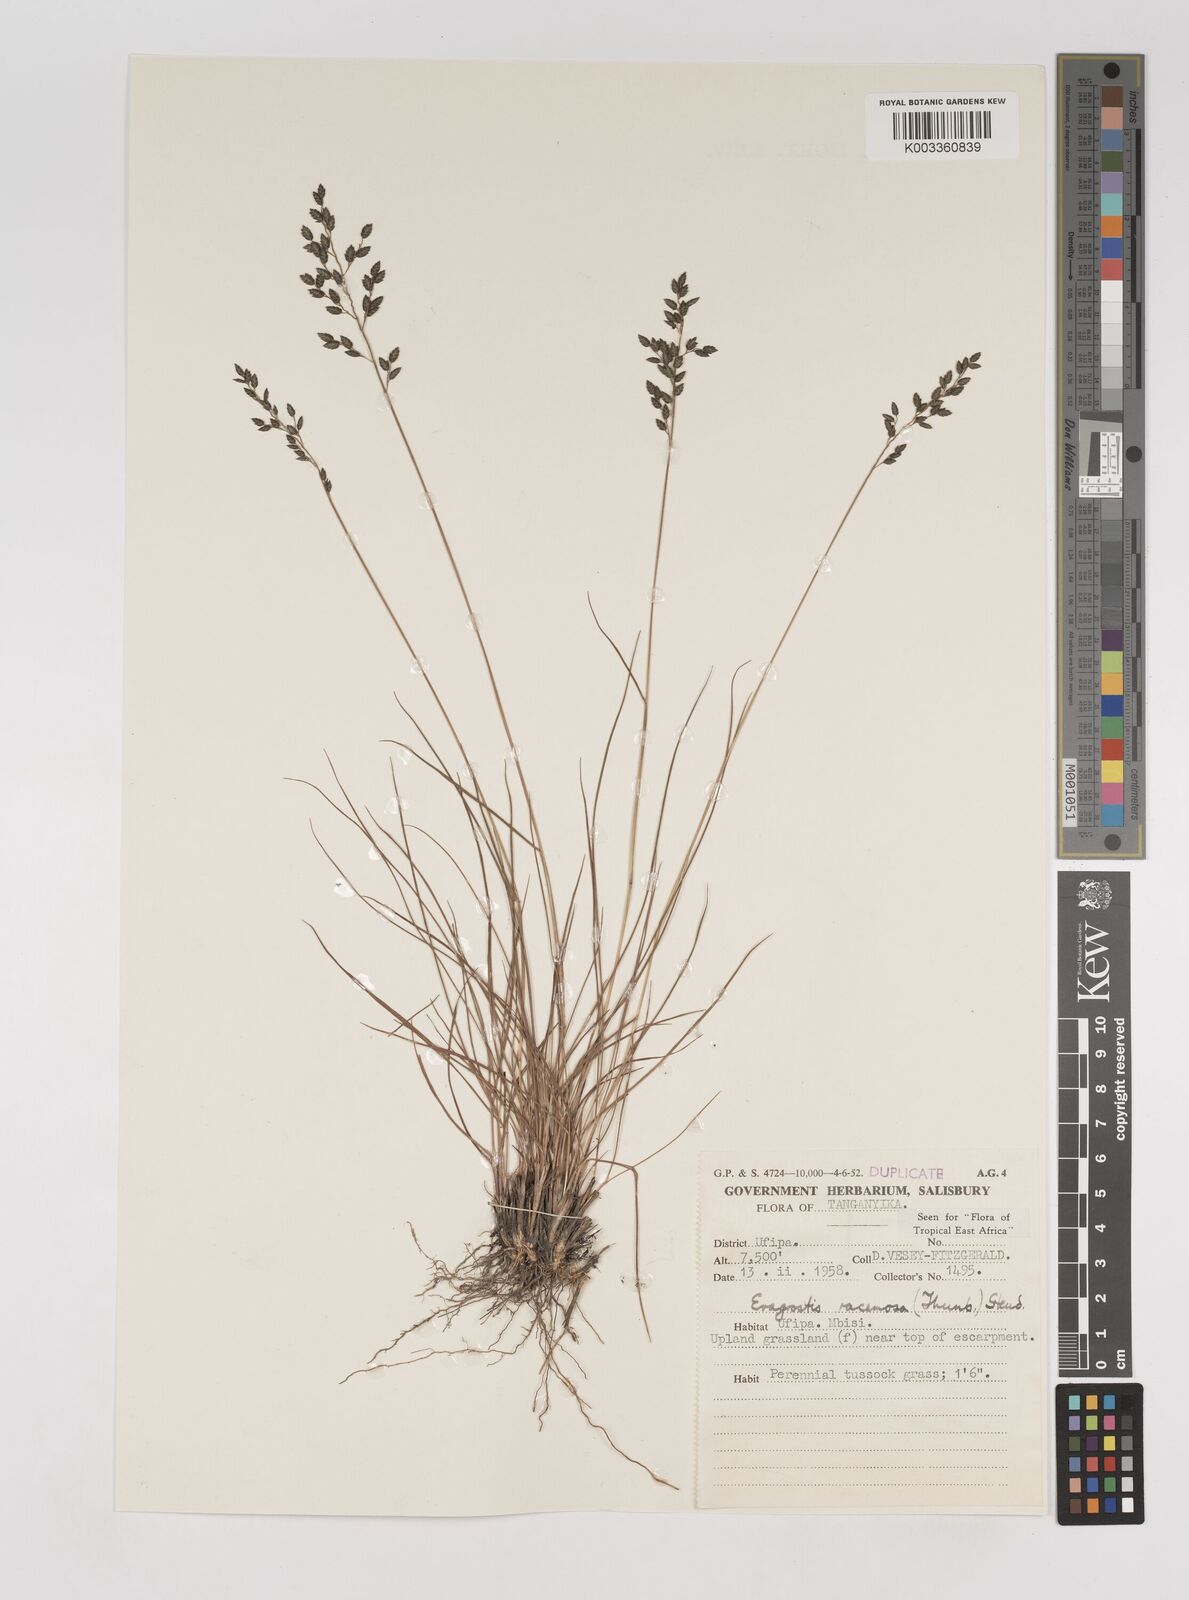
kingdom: Plantae
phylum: Tracheophyta
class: Liliopsida
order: Poales
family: Poaceae
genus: Eragrostis
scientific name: Eragrostis racemosa
